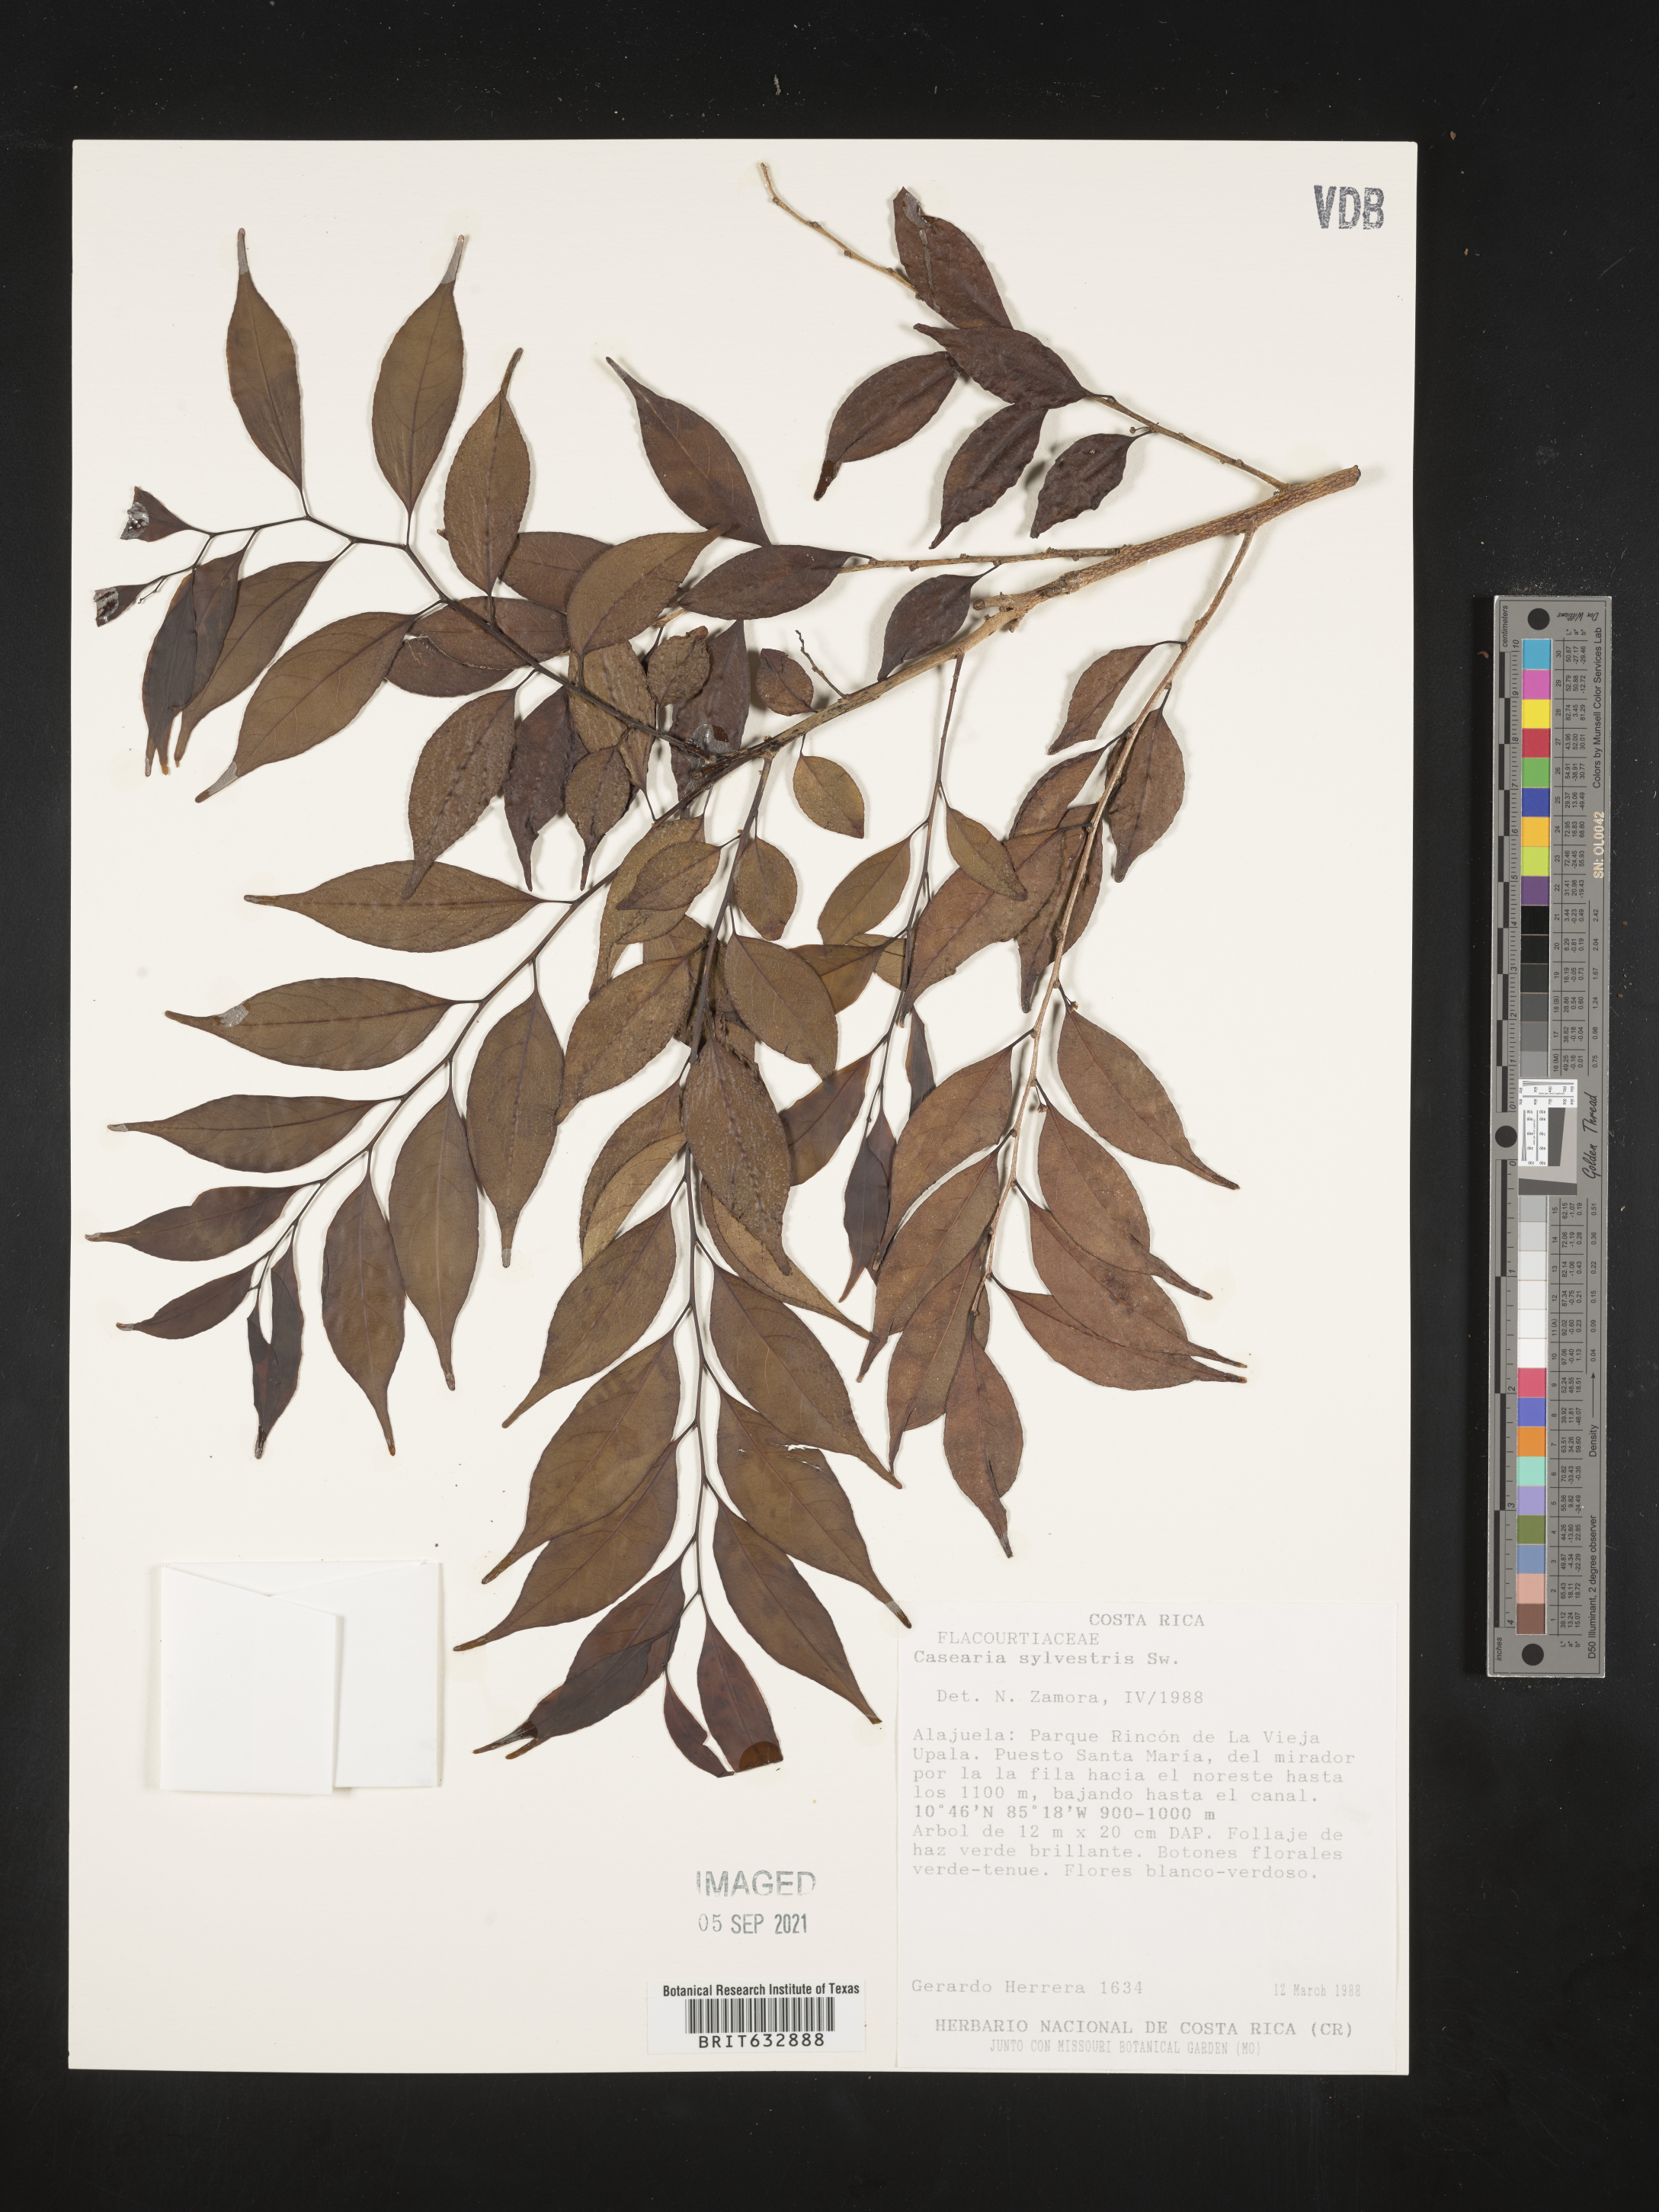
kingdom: Plantae
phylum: Tracheophyta
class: Magnoliopsida
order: Malpighiales
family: Salicaceae
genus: Casearia
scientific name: Casearia
